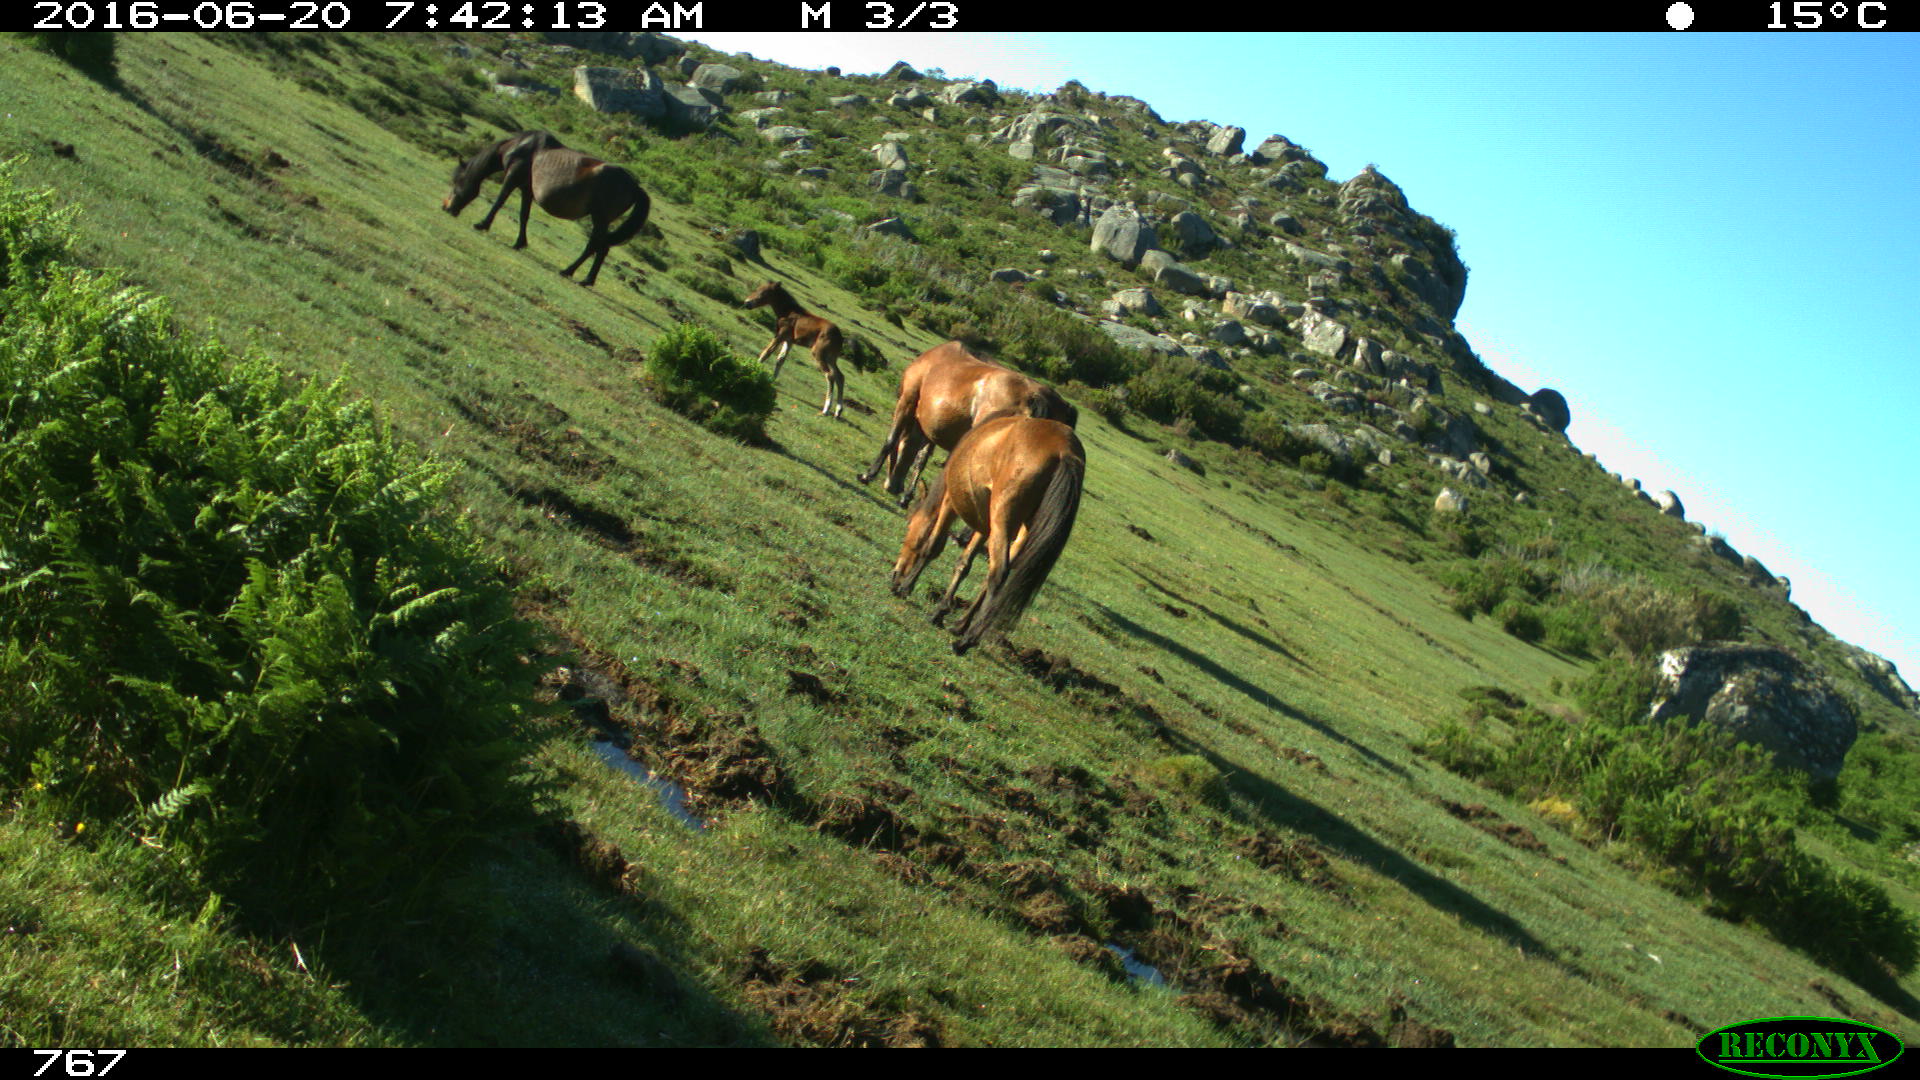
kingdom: Animalia
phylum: Chordata
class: Mammalia
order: Perissodactyla
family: Equidae
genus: Equus
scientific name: Equus caballus
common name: Horse
